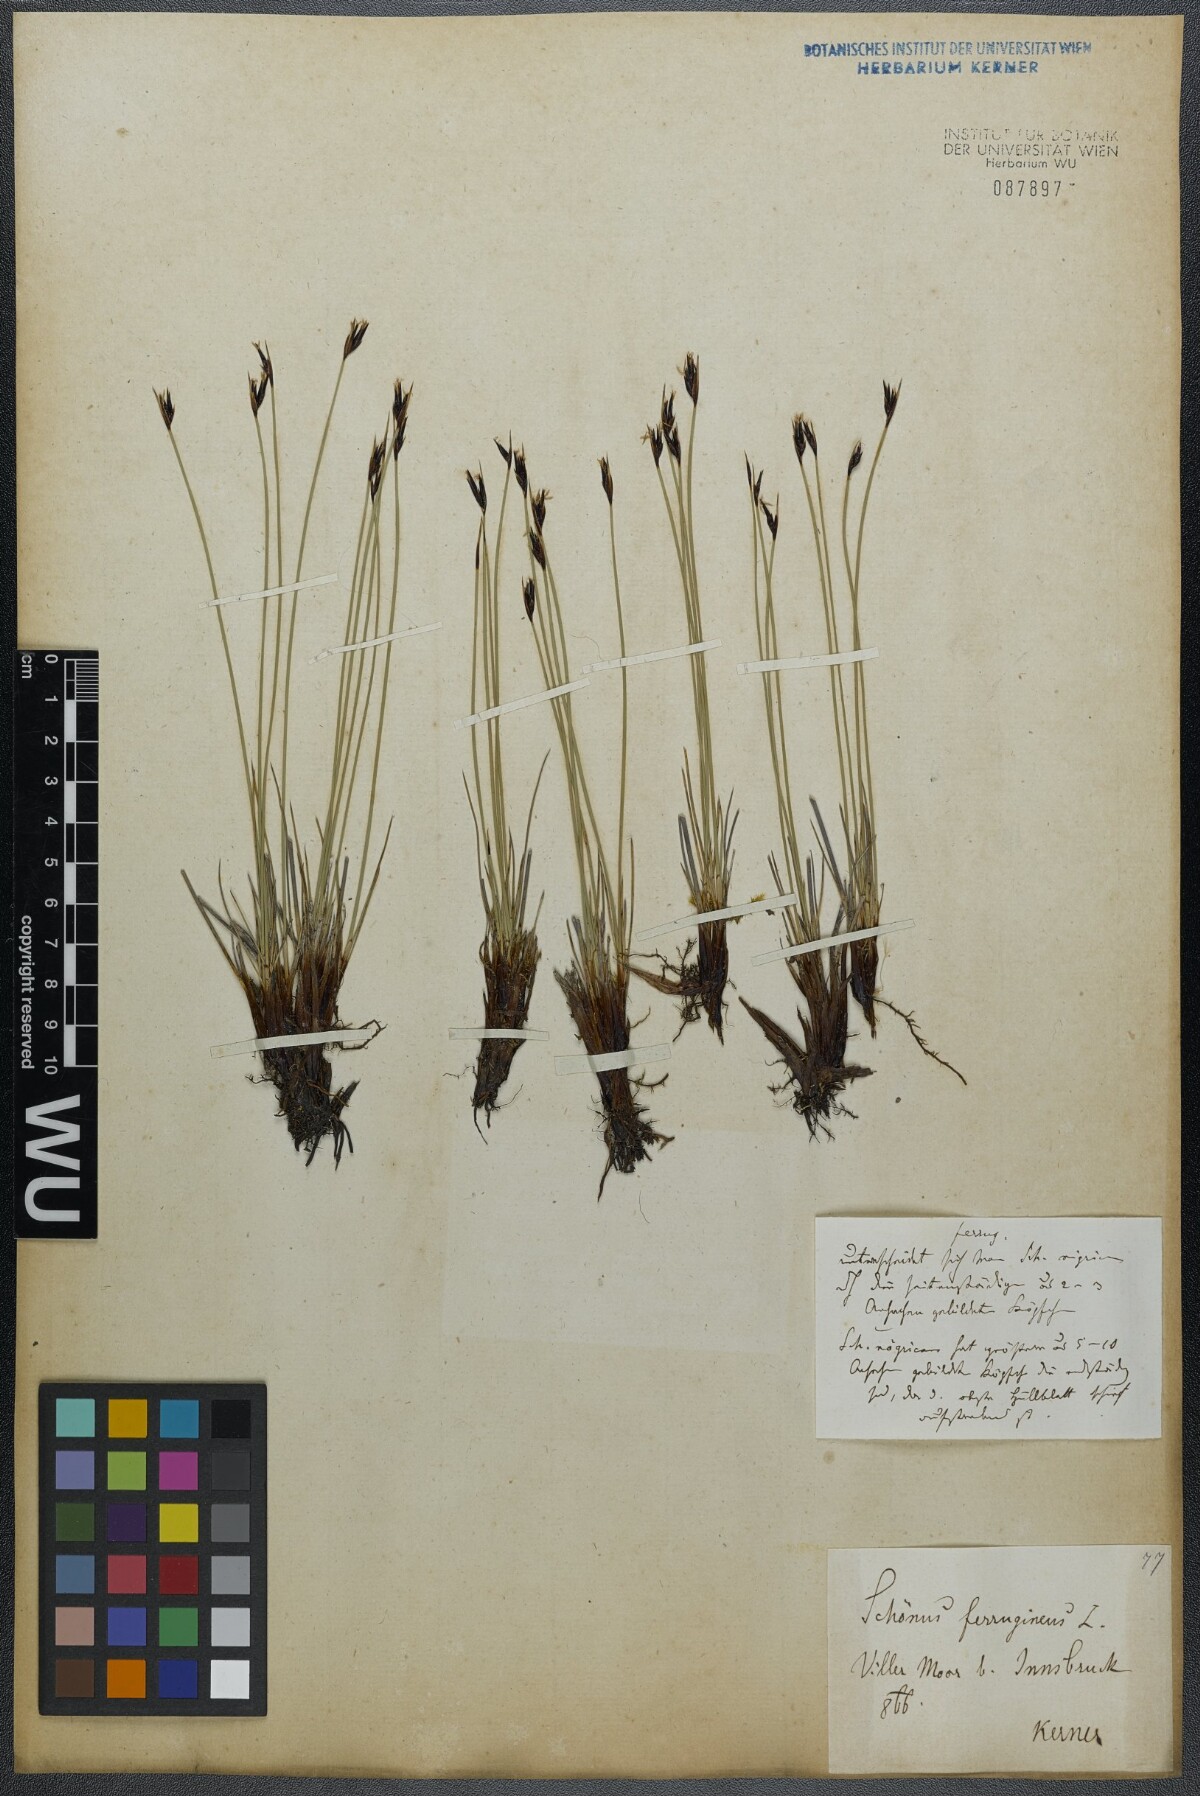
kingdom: Plantae
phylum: Tracheophyta
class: Liliopsida
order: Poales
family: Cyperaceae
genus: Schoenus
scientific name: Schoenus ferrugineus
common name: Brown bog-rush
